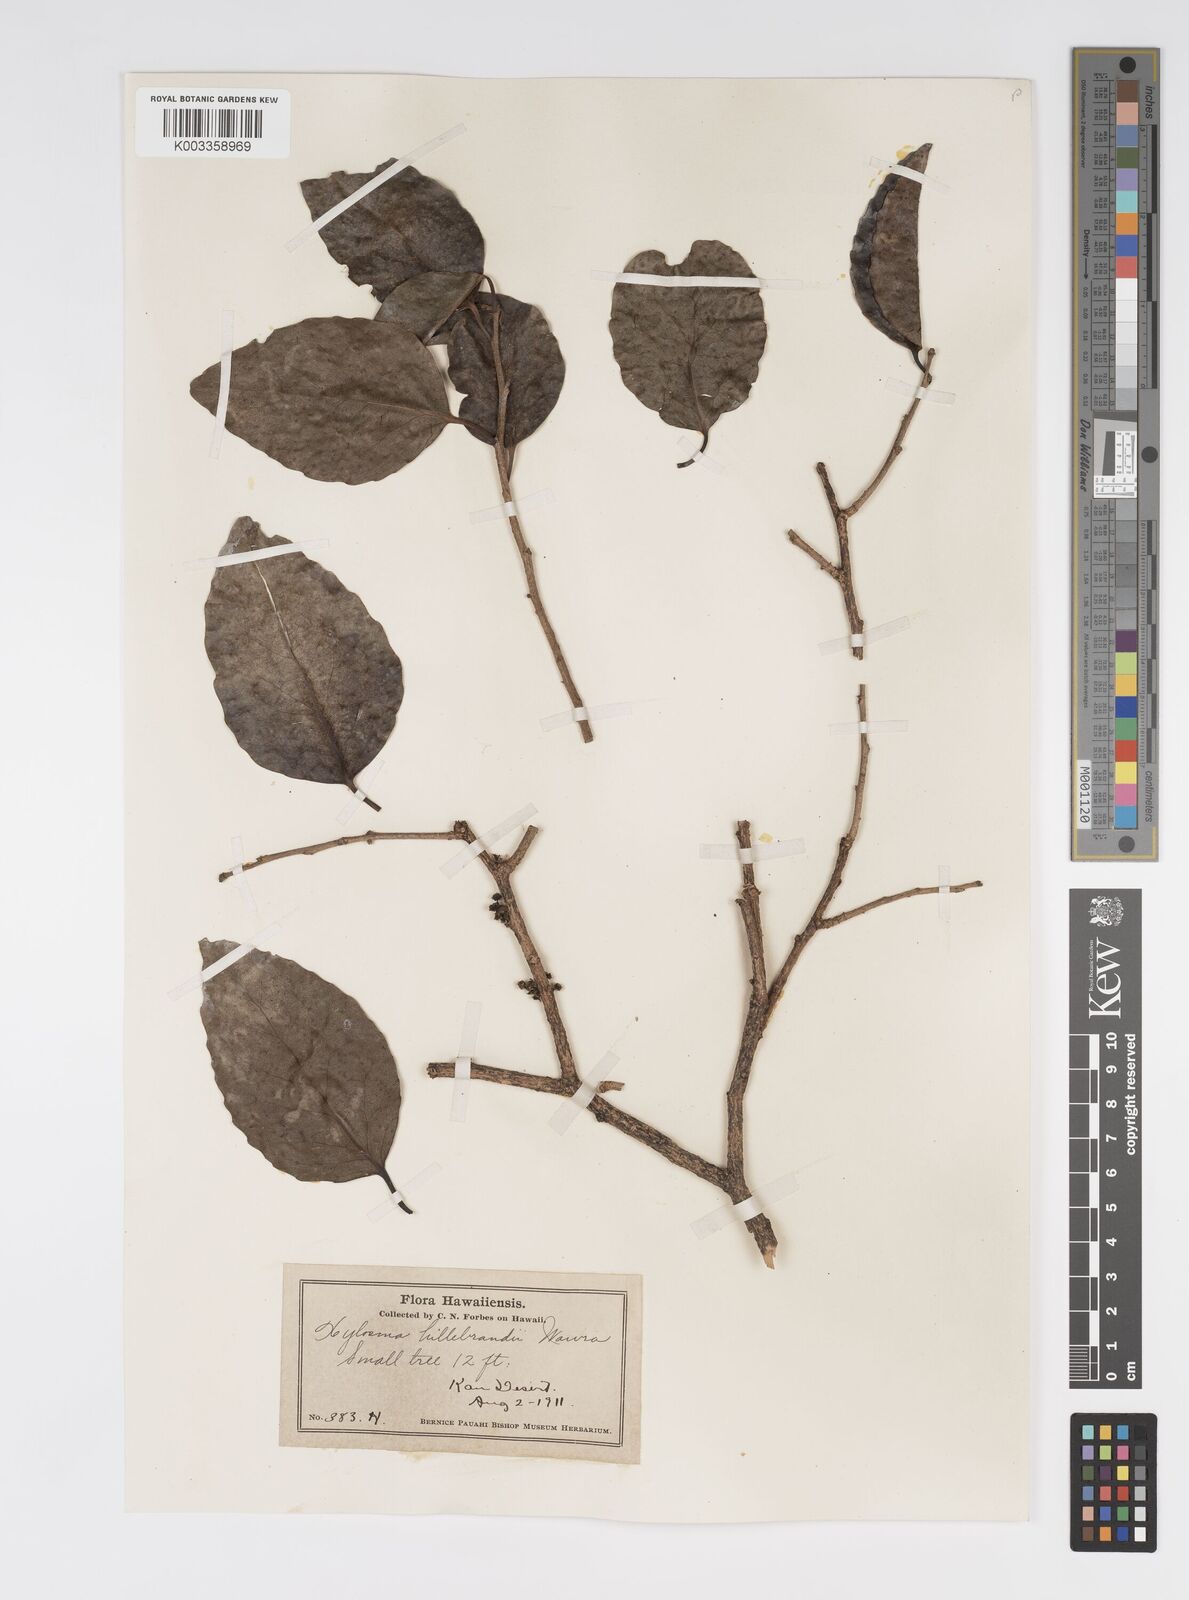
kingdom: Plantae
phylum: Tracheophyta
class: Magnoliopsida
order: Malpighiales
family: Salicaceae
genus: Xylosma
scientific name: Xylosma hawaiense
